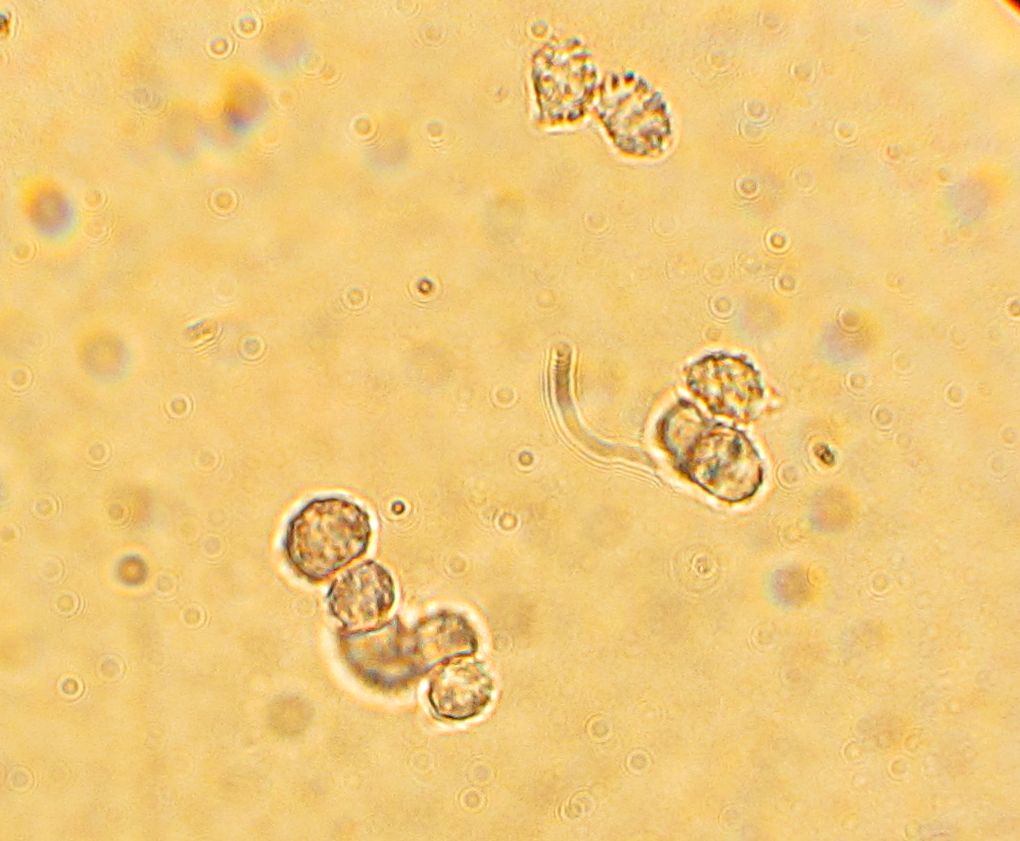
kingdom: Fungi
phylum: Basidiomycota
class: Agaricomycetes
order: Russulales
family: Russulaceae
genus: Lactarius
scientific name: Lactarius torminosus
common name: skægget mælkehat
